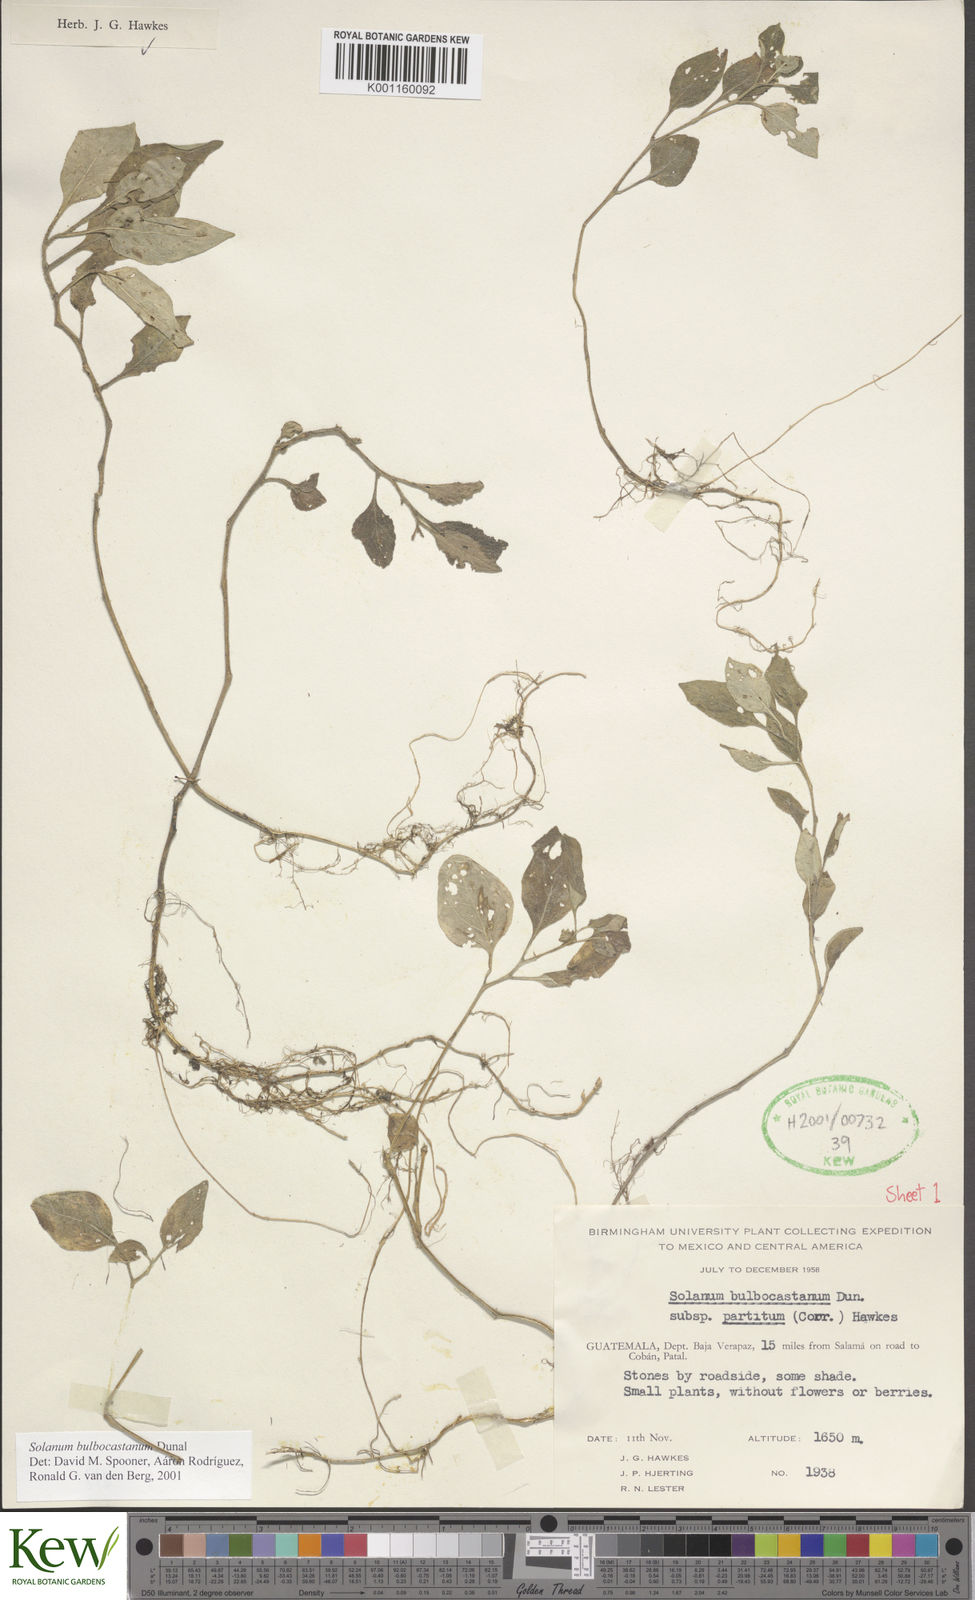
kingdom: Plantae
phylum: Tracheophyta
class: Magnoliopsida
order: Solanales
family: Solanaceae
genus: Solanum
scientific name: Solanum bulbocastanum
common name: Ornamental nightshade
